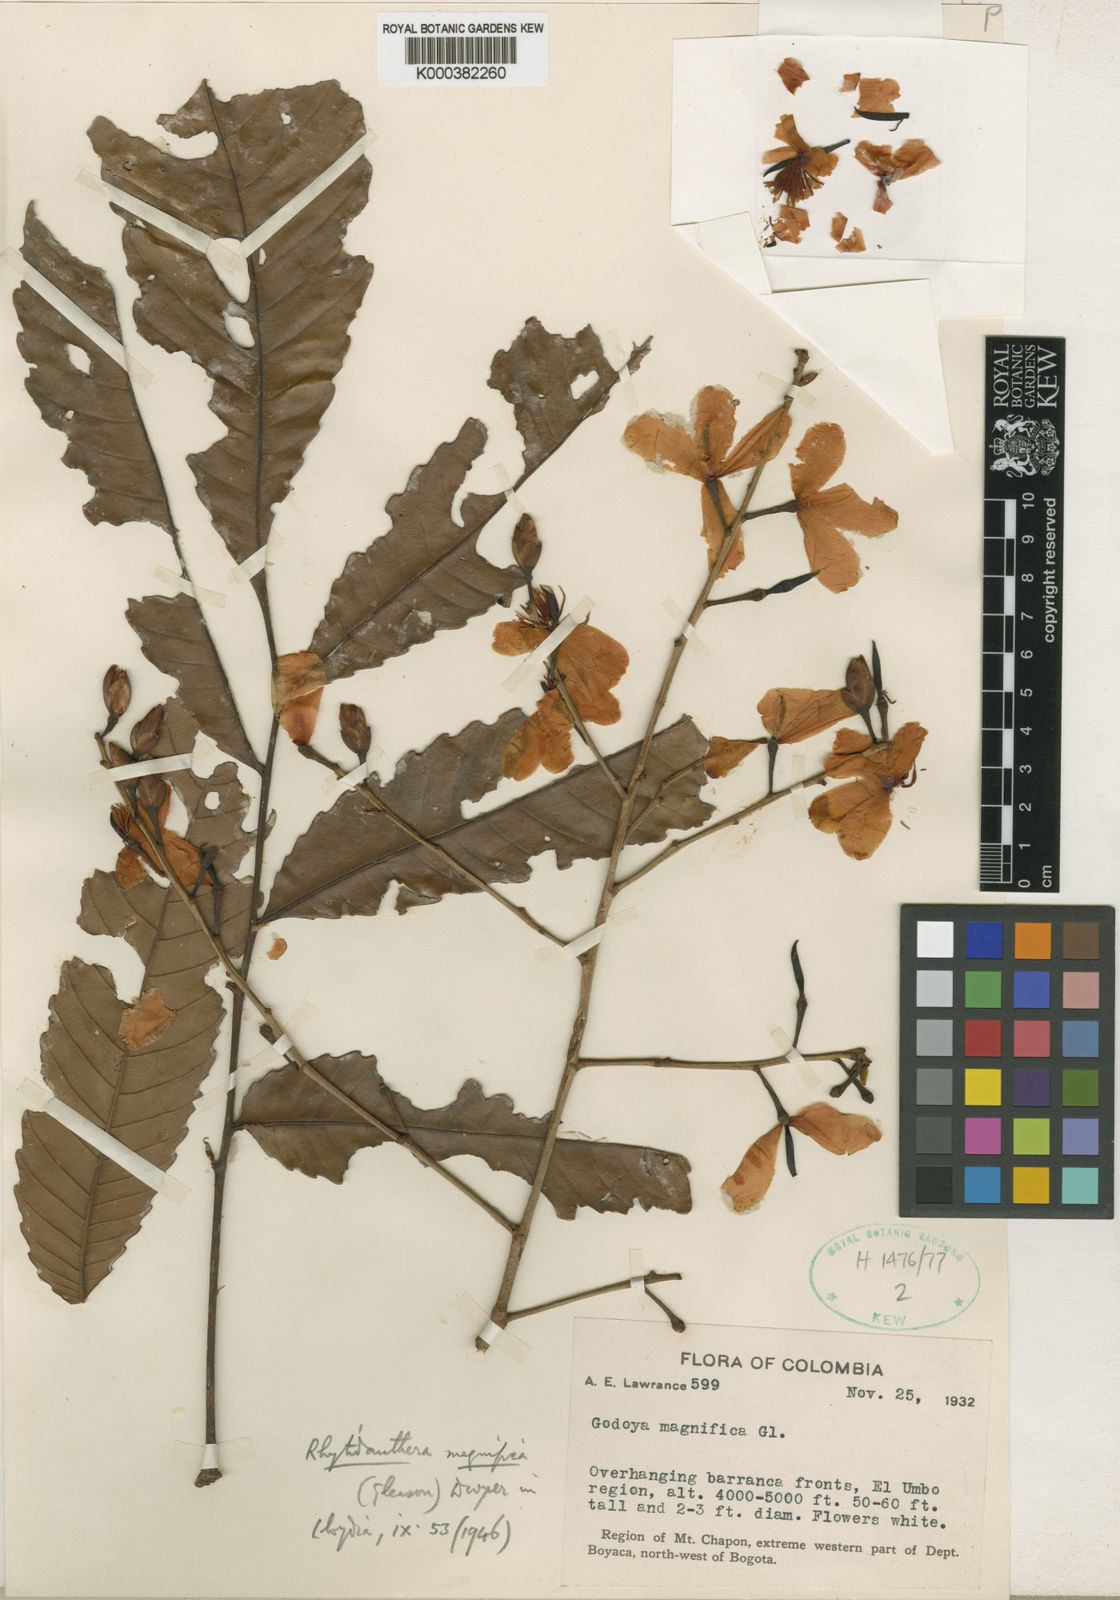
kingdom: Plantae
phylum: Tracheophyta
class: Magnoliopsida
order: Malpighiales
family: Ochnaceae
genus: Rhytidanthera
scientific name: Rhytidanthera magnifica
